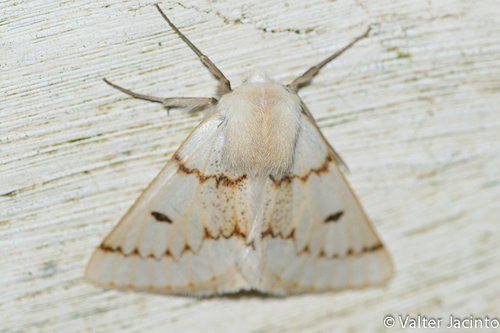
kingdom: Animalia
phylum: Arthropoda
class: Insecta
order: Lepidoptera
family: Geometridae
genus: Dyscia
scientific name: Dyscia distinctaria
